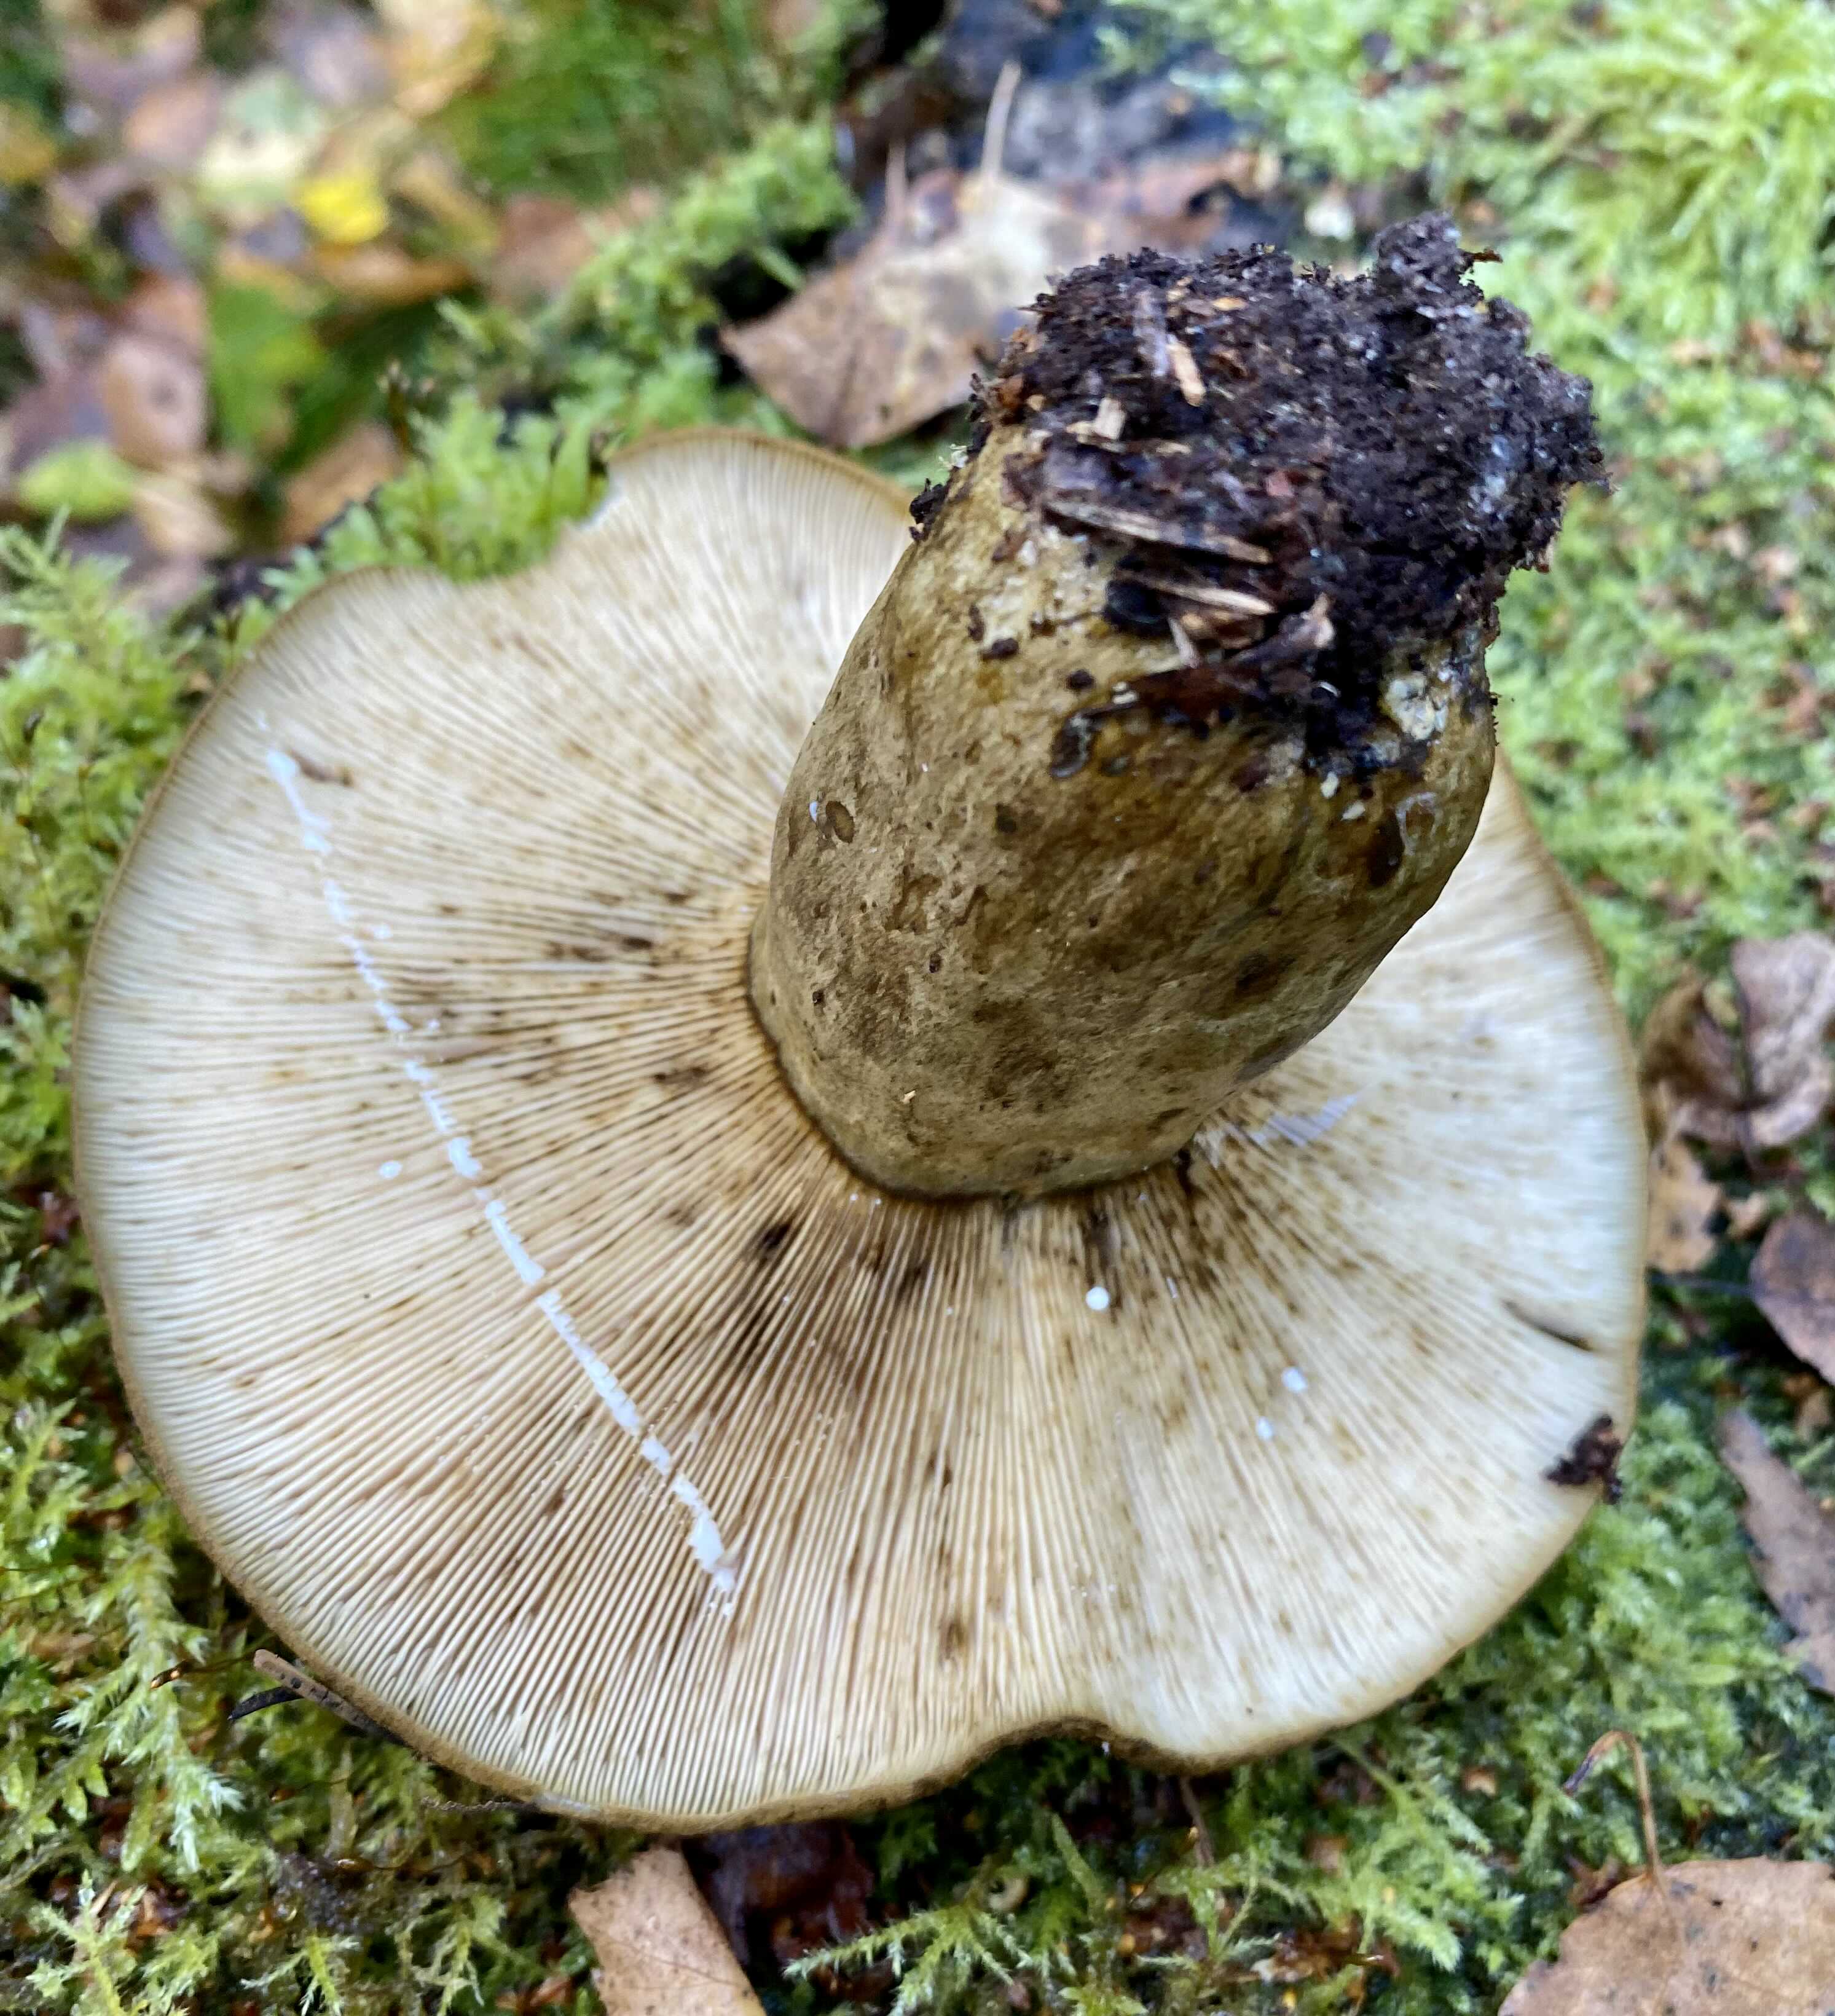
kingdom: Fungi
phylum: Basidiomycota
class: Agaricomycetes
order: Russulales
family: Russulaceae
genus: Lactarius
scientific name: Lactarius necator
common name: manddraber-mælkehat
